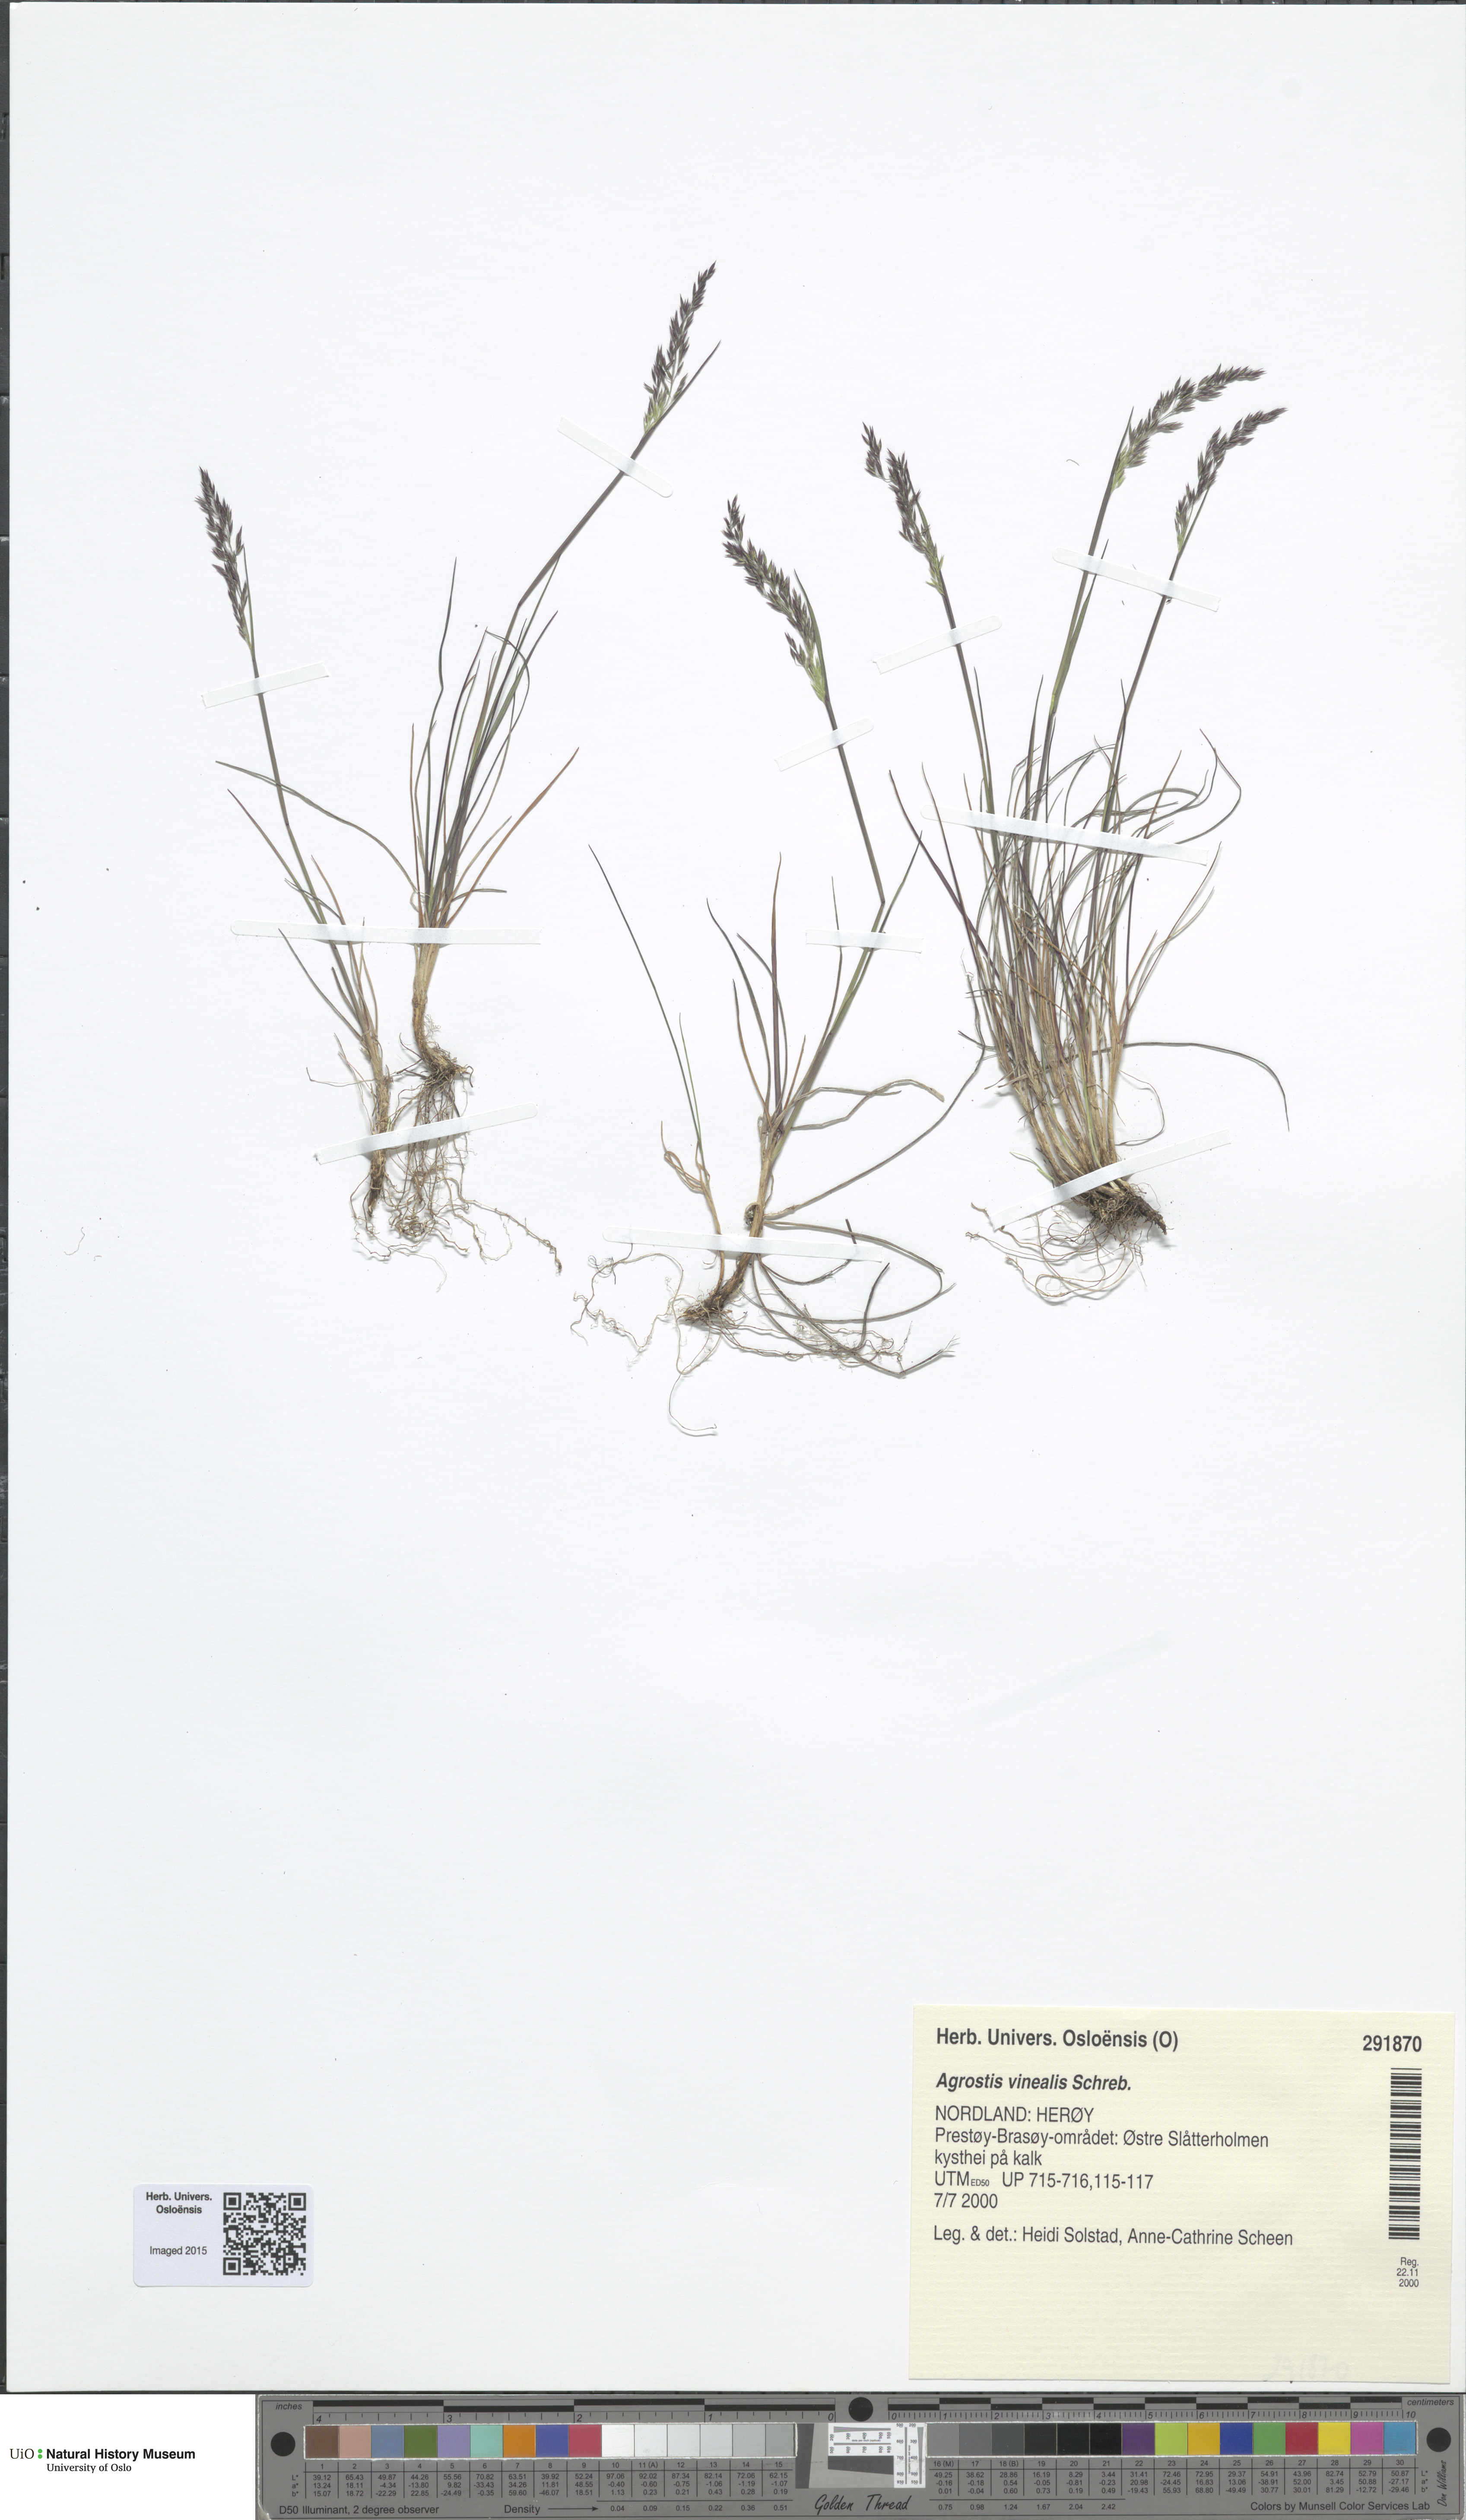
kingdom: Plantae
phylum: Tracheophyta
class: Liliopsida
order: Poales
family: Poaceae
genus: Agrostis
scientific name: Agrostis vinealis
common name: Brown bent
